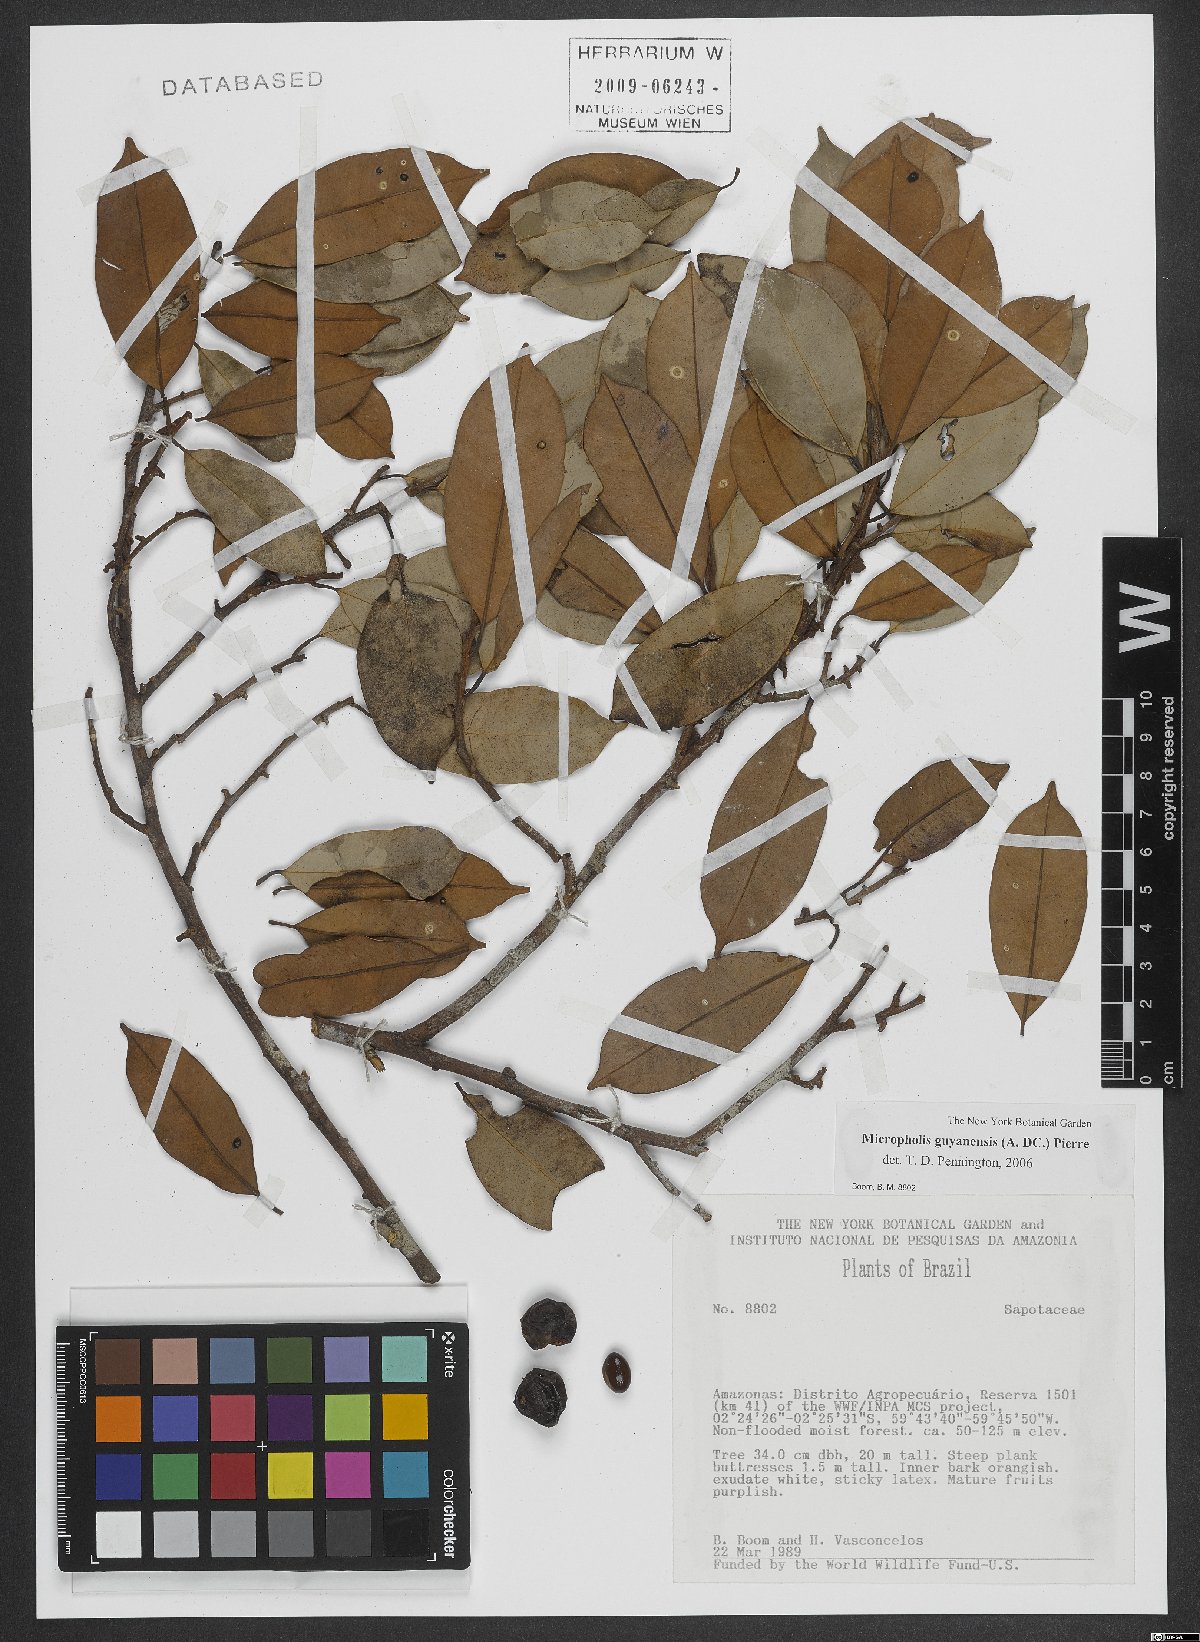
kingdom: Plantae
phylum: Tracheophyta
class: Magnoliopsida
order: Ericales
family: Sapotaceae
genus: Micropholis
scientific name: Micropholis guyanensis
